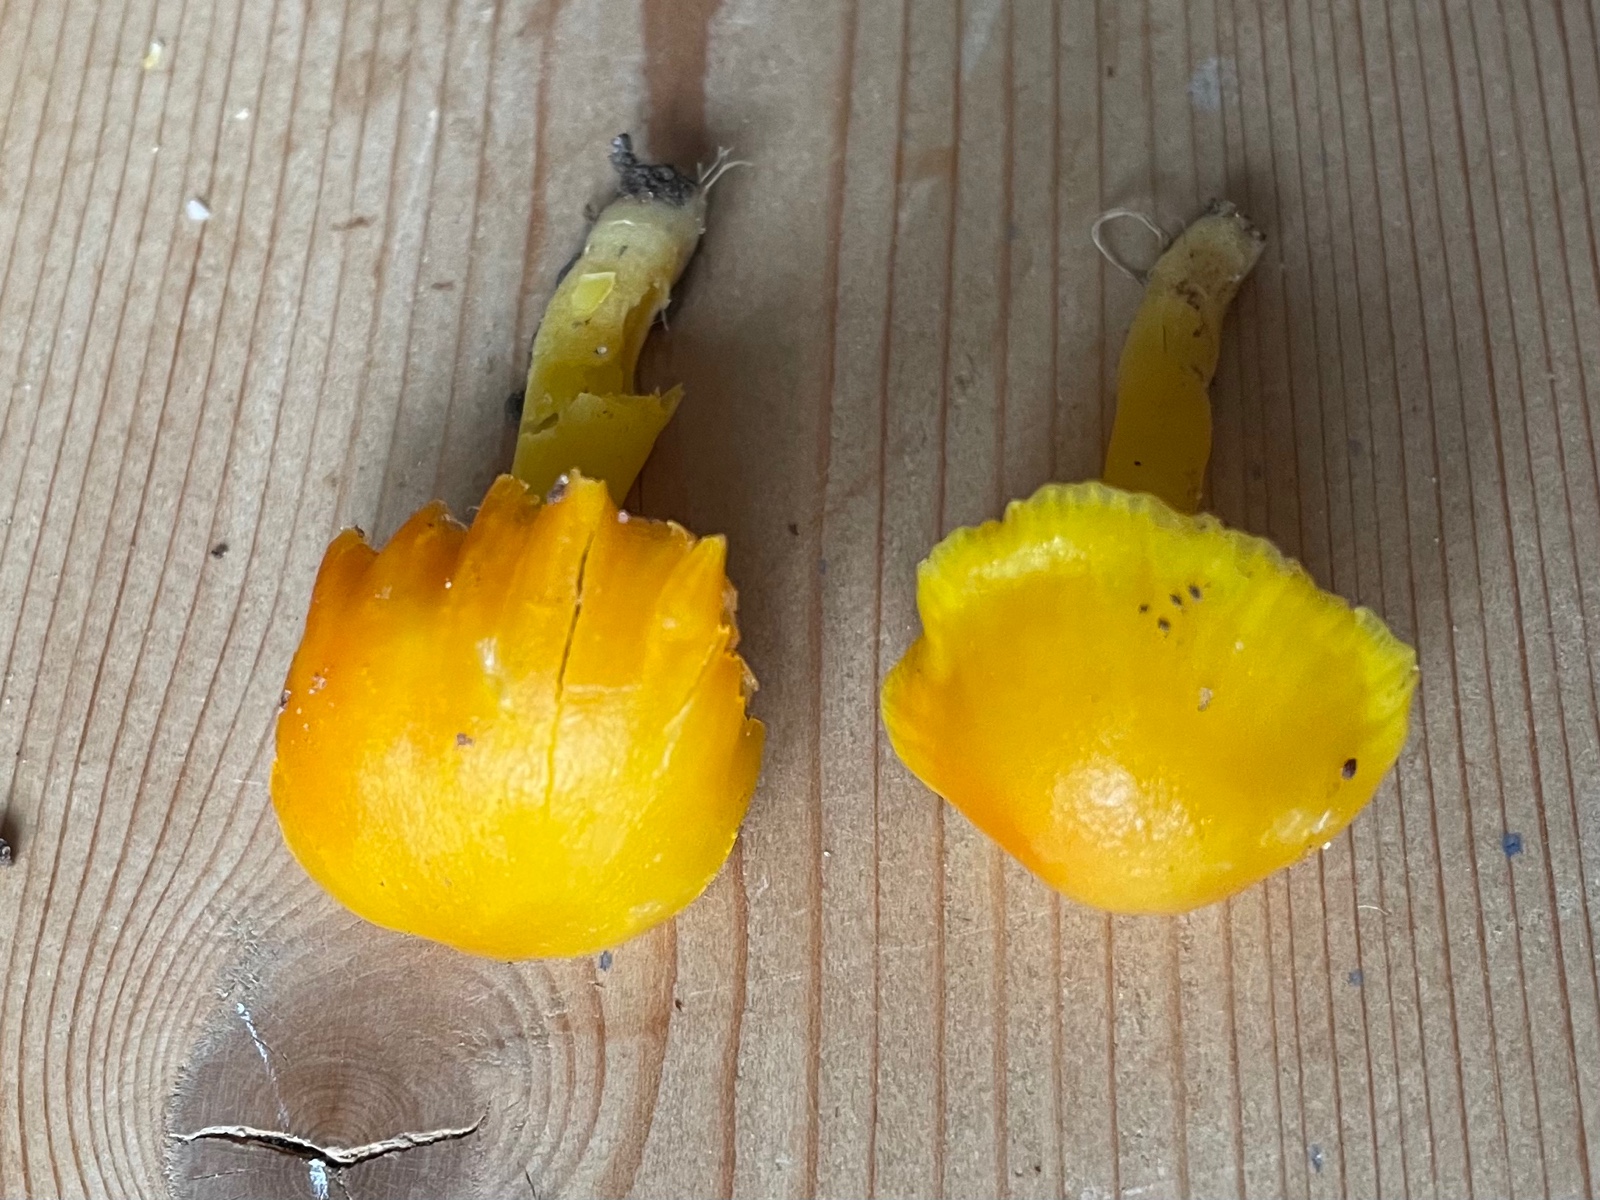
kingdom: Fungi
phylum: Basidiomycota
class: Agaricomycetes
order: Agaricales
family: Hygrophoraceae
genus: Hygrocybe
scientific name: Hygrocybe ceracea
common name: voksgul vokshat
